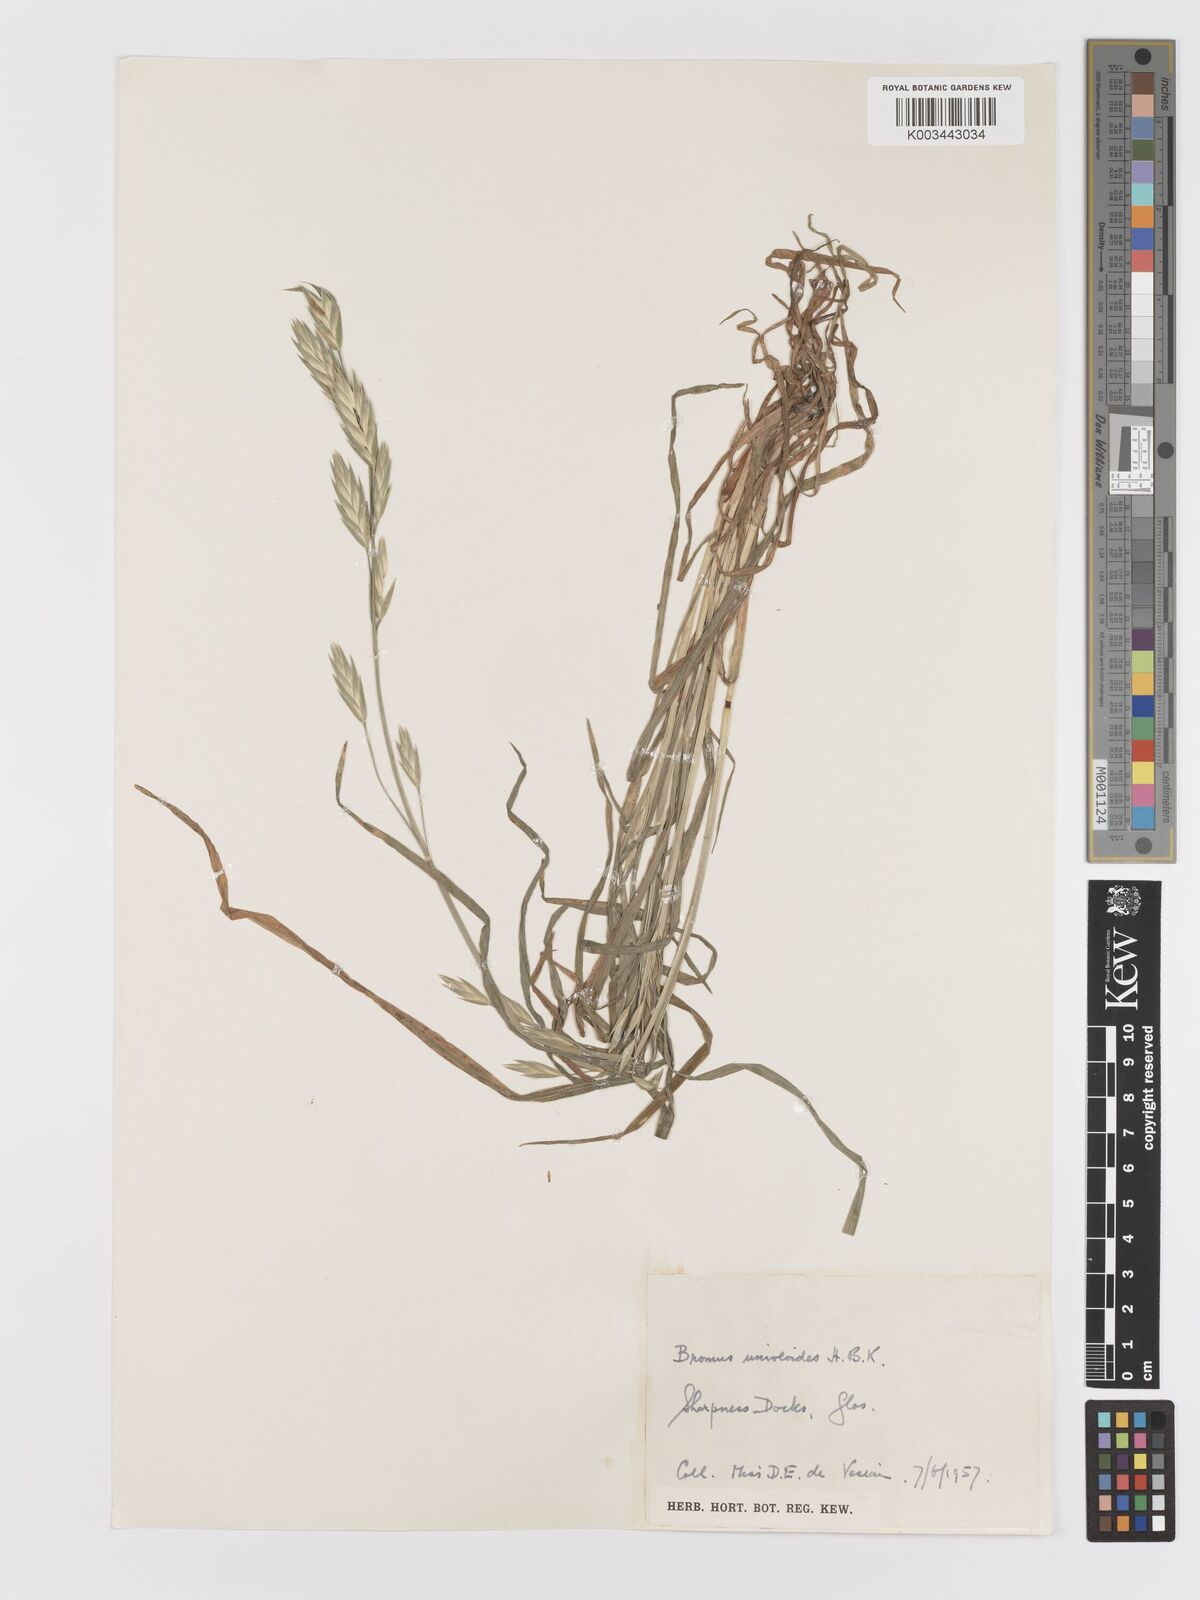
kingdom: Plantae
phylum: Tracheophyta
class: Liliopsida
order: Poales
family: Poaceae
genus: Bromus
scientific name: Bromus catharticus
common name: Rescuegrass
